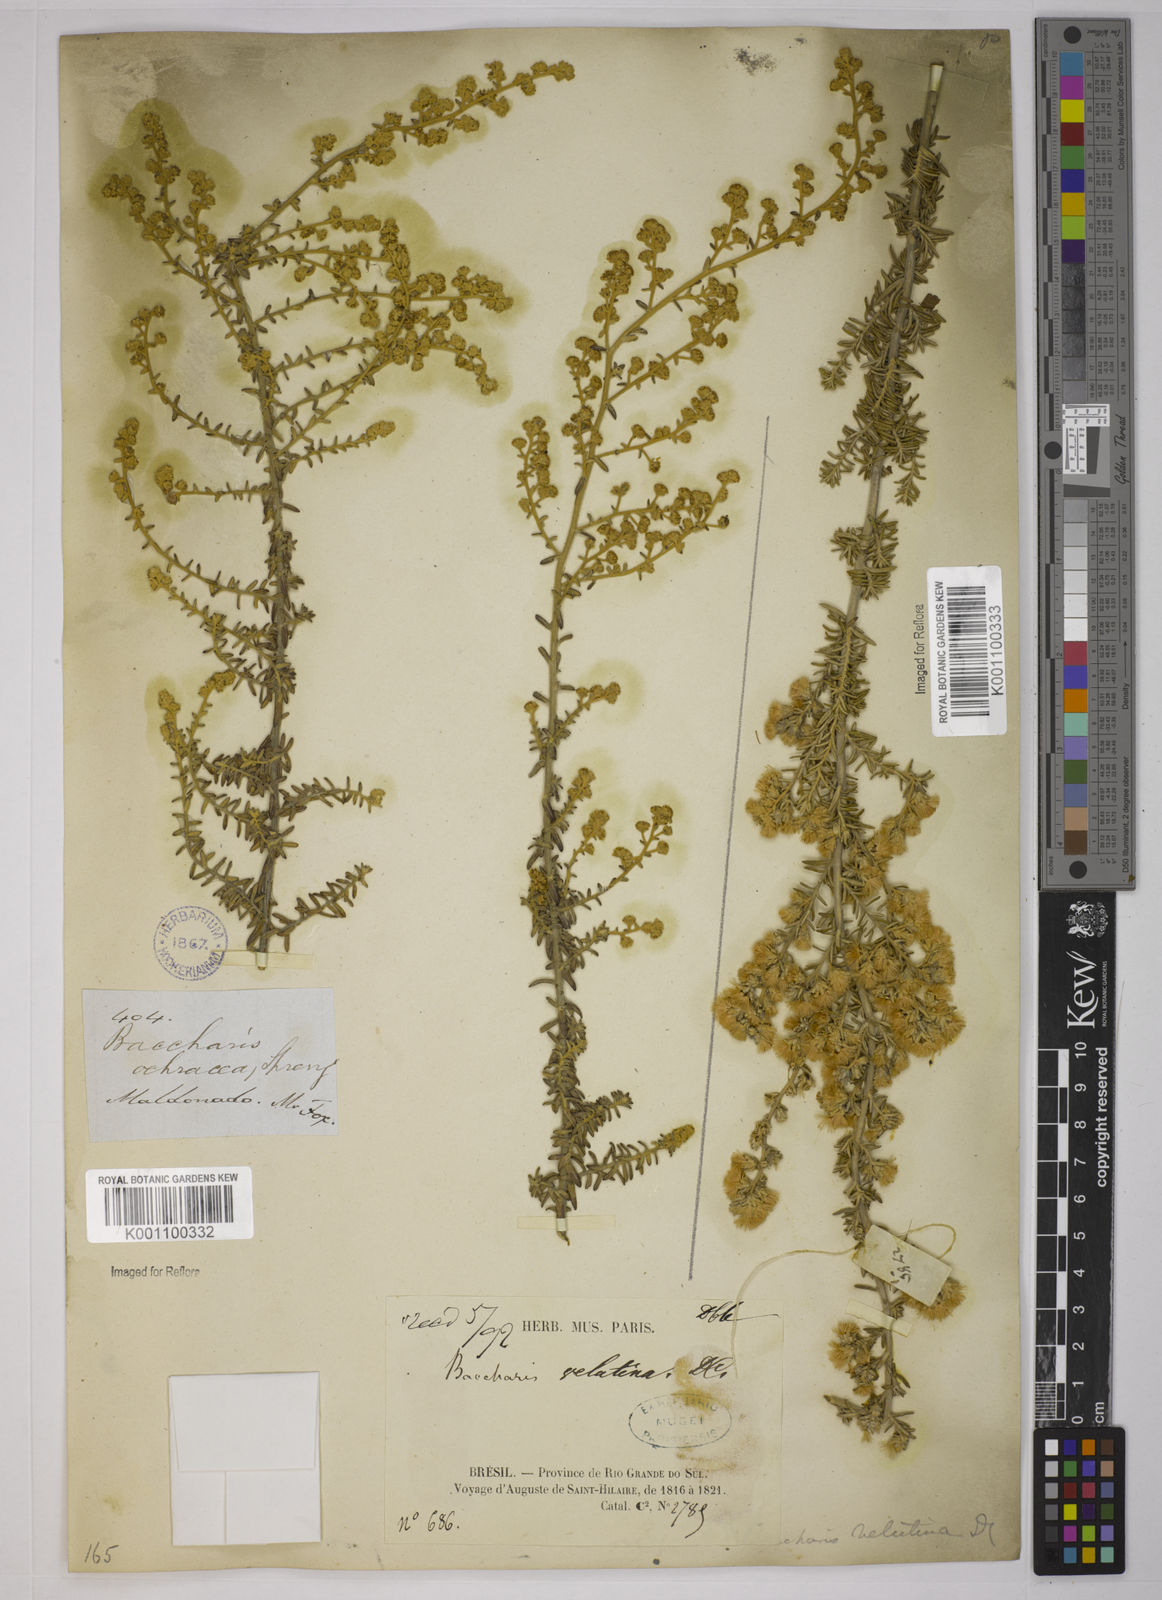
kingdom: Plantae
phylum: Tracheophyta
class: Magnoliopsida
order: Asterales
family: Asteraceae
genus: Baccharis
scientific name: Baccharis ochracea
